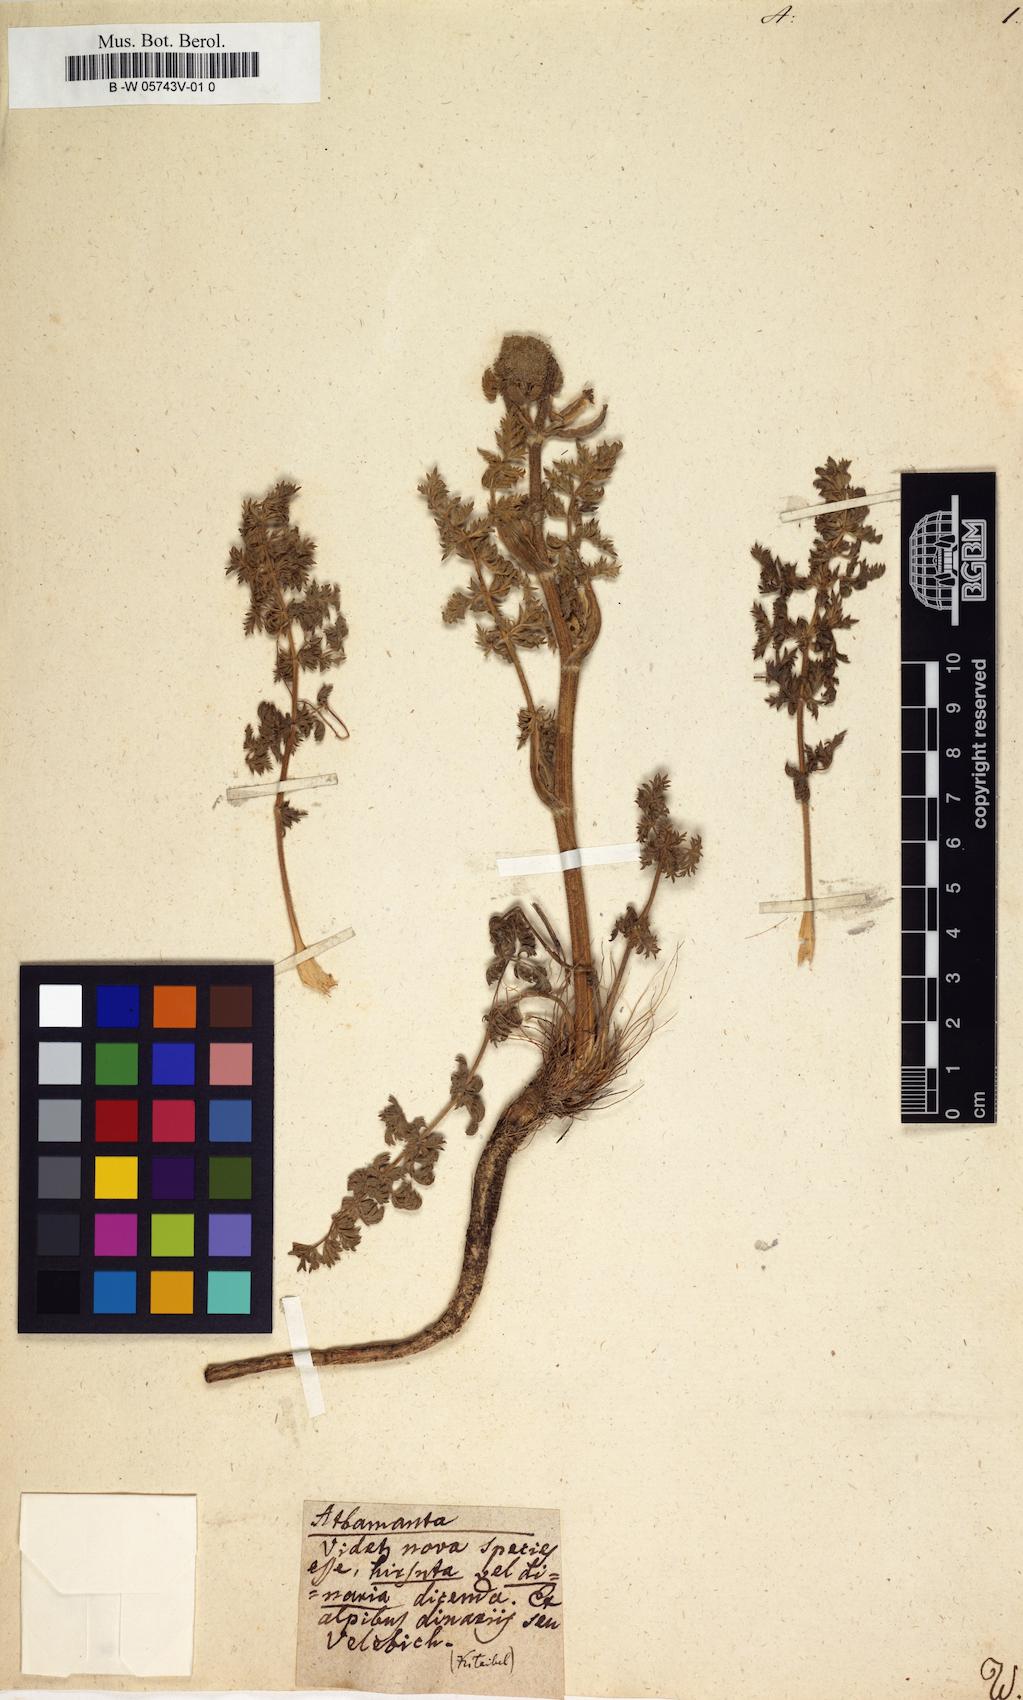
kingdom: Plantae
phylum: Tracheophyta
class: Magnoliopsida
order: Apiales
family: Apiaceae
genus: Athamanta
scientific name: Athamanta
